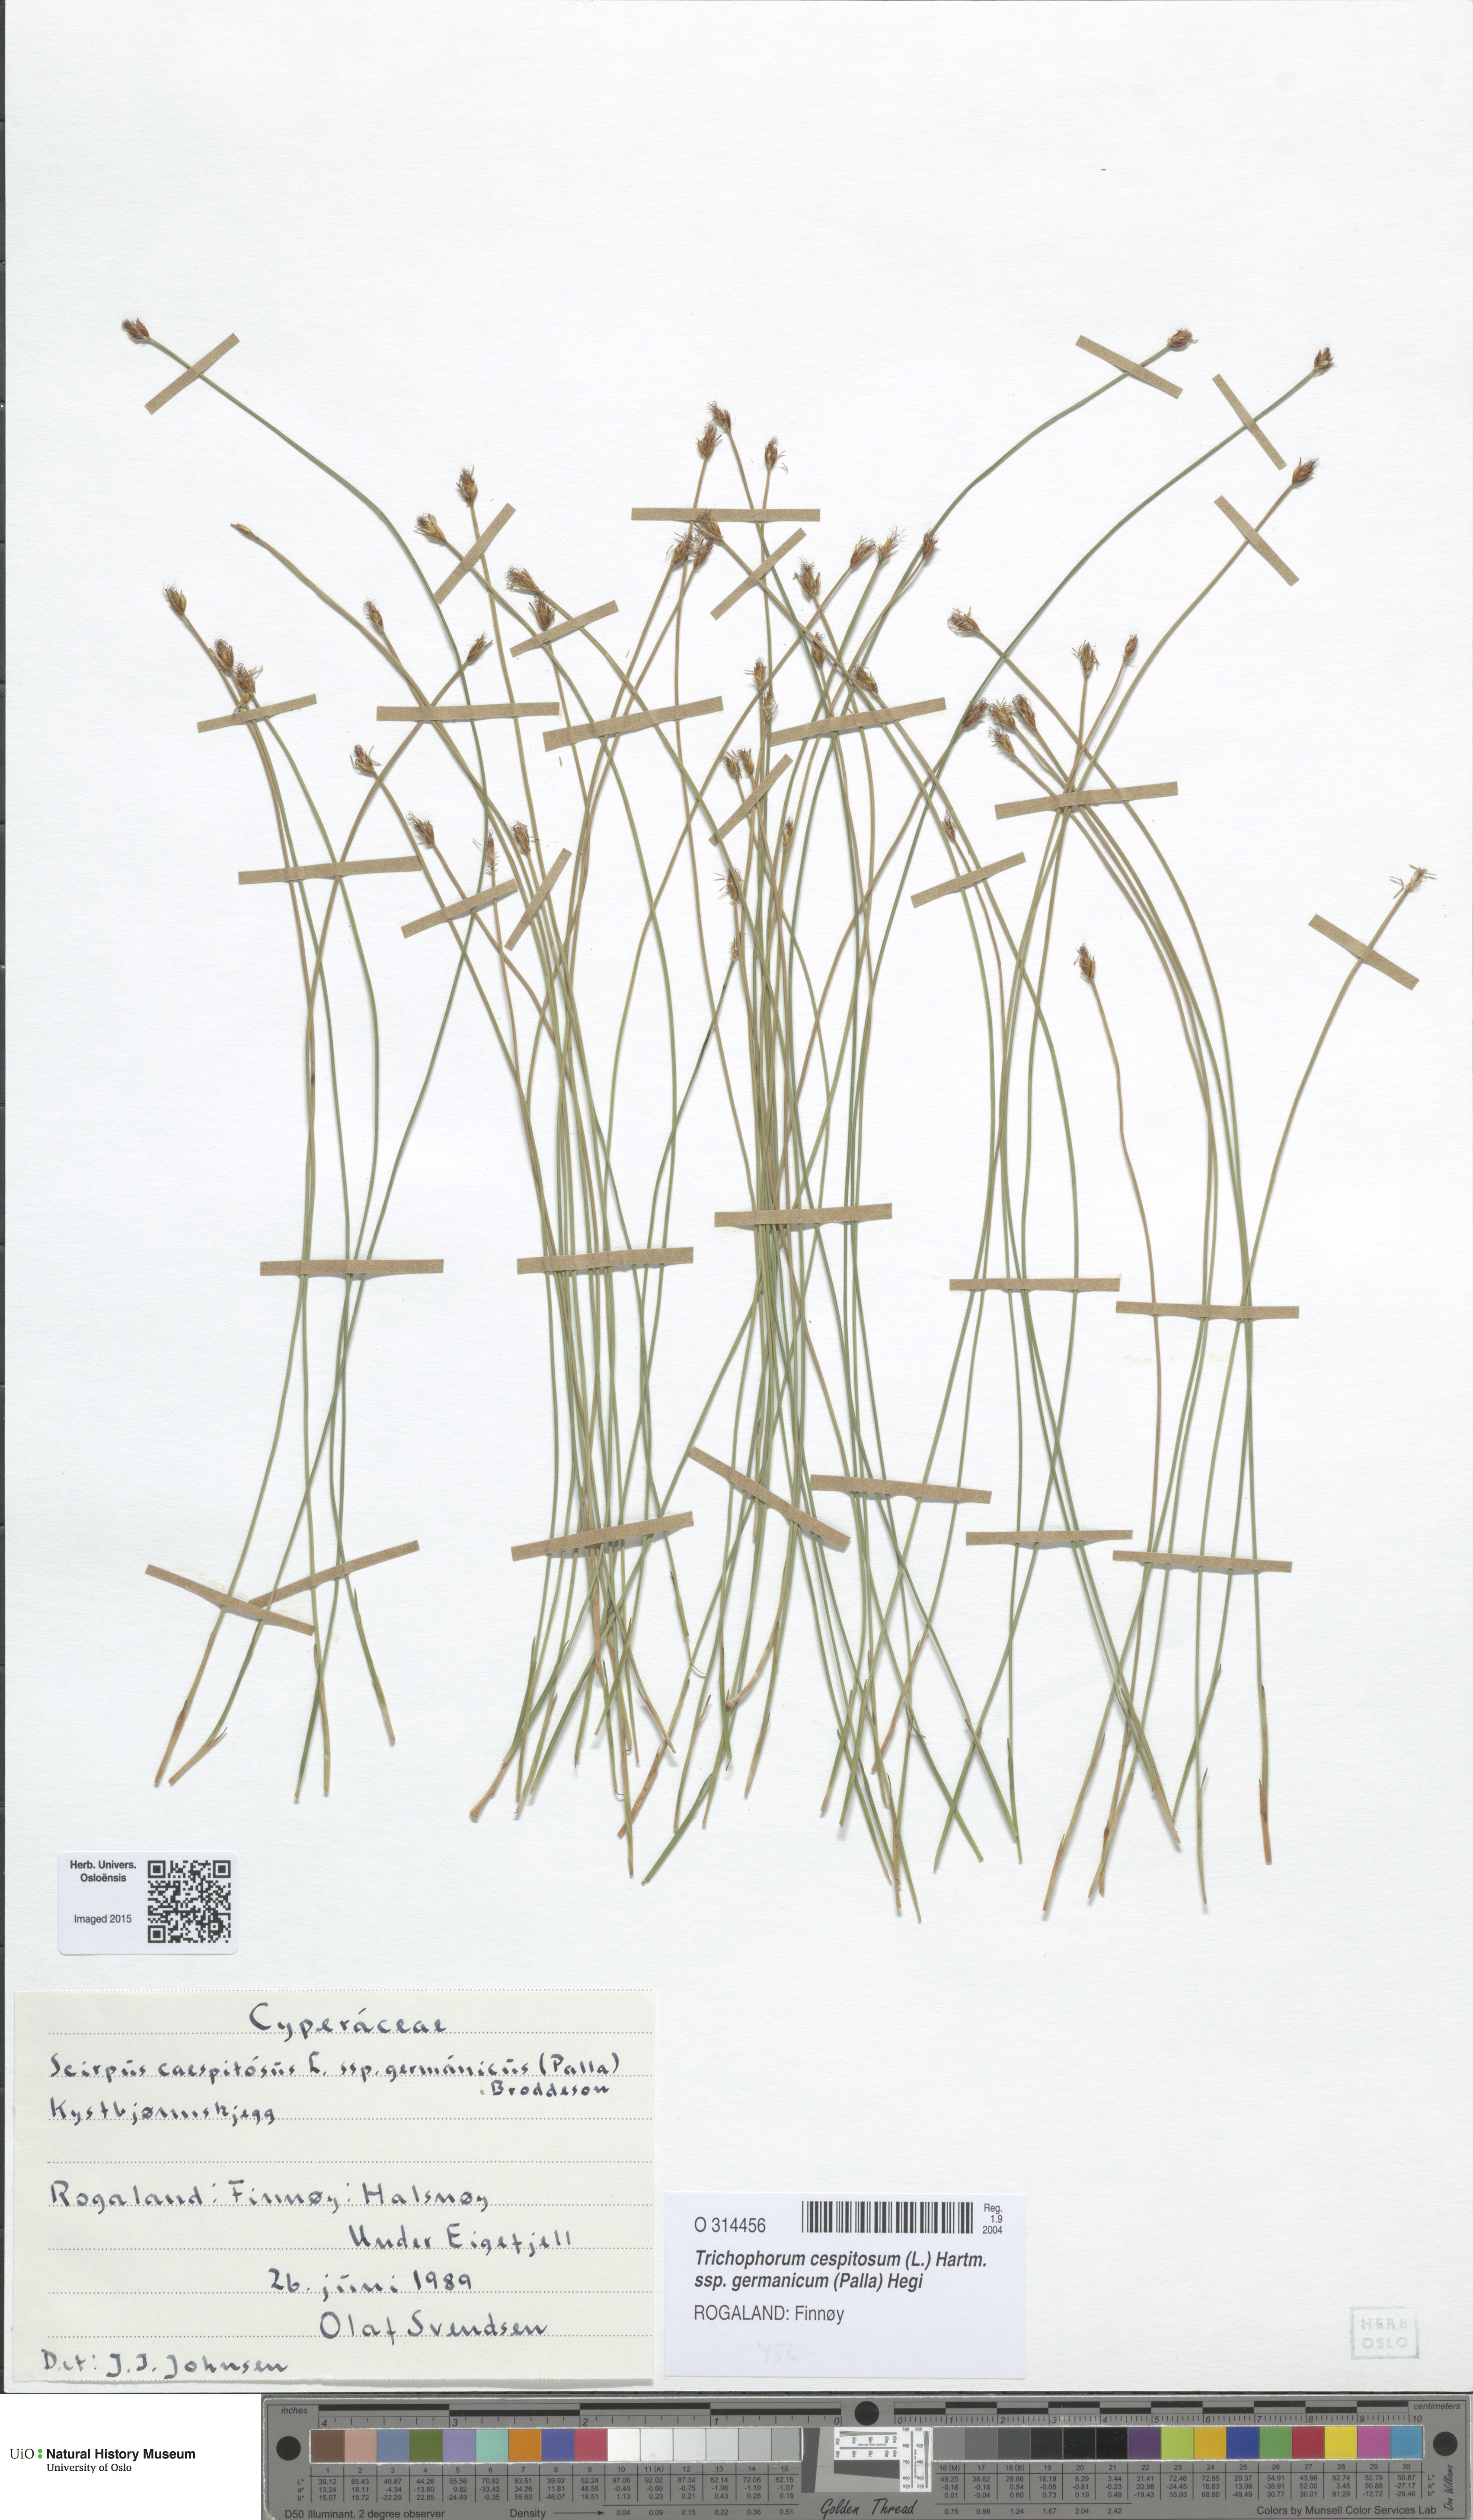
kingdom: Plantae
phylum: Tracheophyta
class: Liliopsida
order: Poales
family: Cyperaceae
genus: Trichophorum
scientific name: Trichophorum cespitosum
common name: Cespitose bulrush
